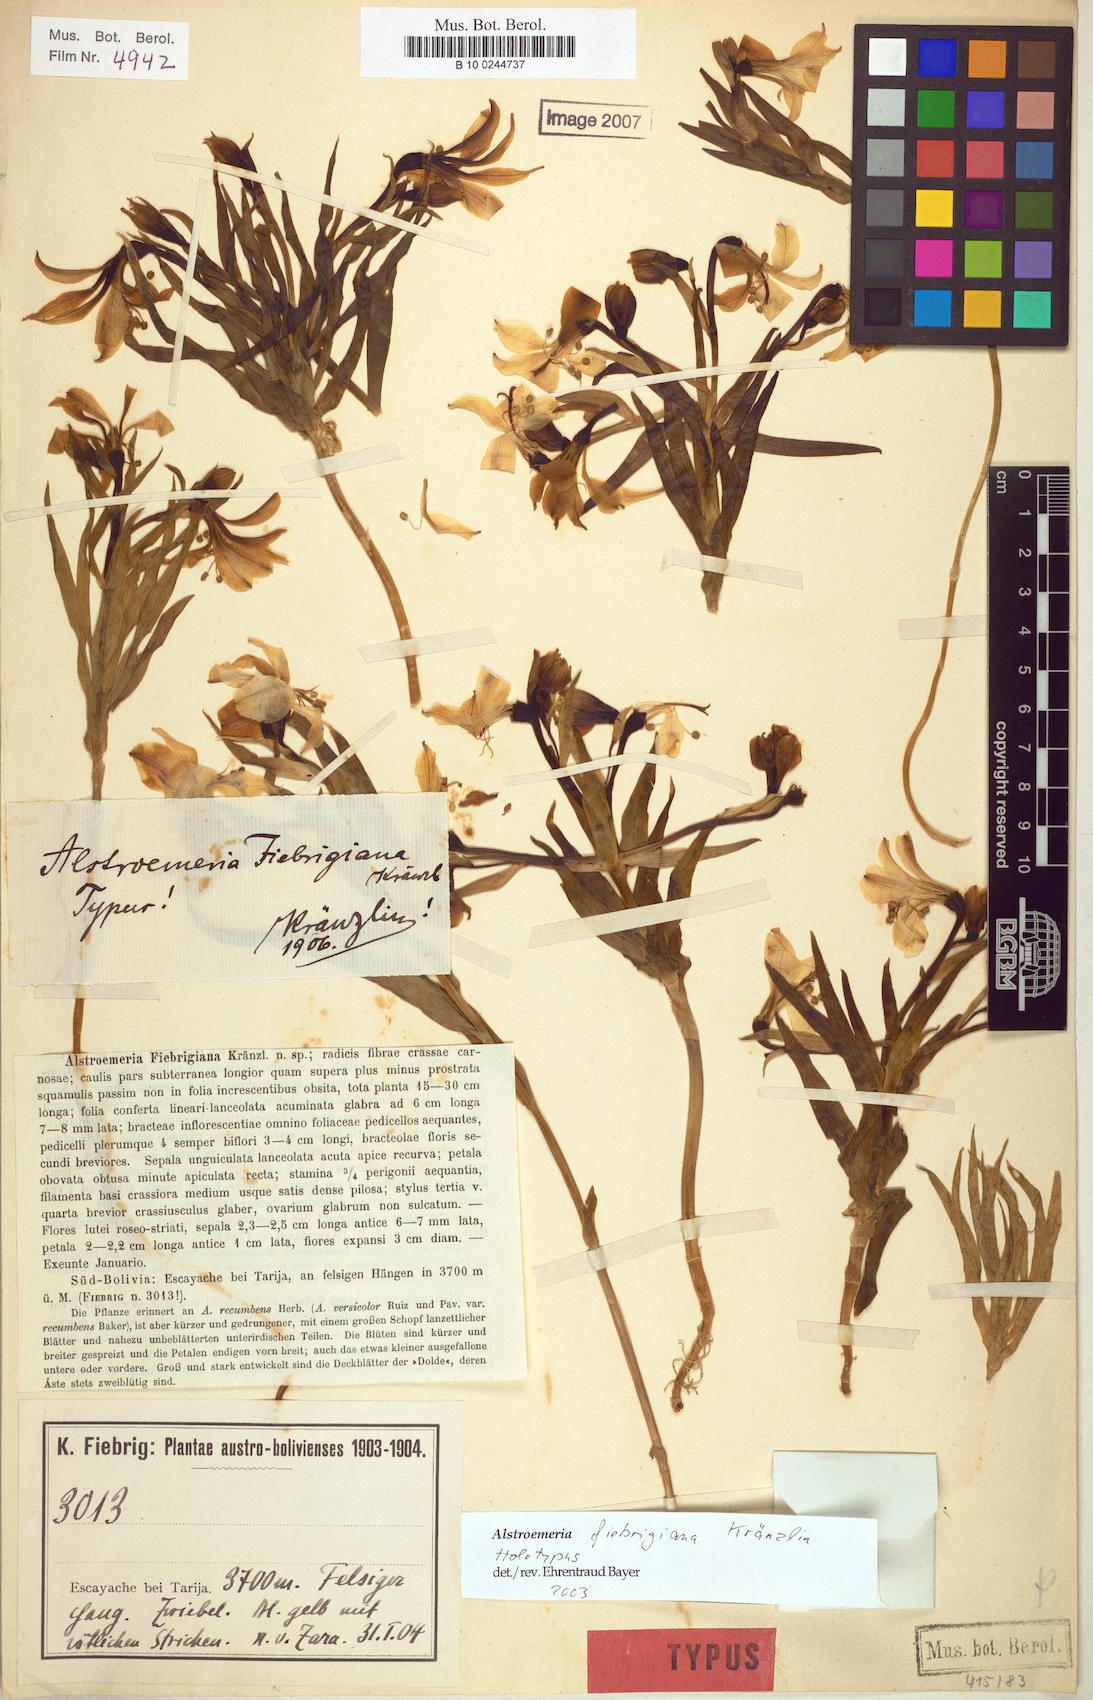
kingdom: Plantae
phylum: Tracheophyta
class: Liliopsida
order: Liliales
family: Alstroemeriaceae
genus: Alstroemeria
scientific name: Alstroemeria fiebrigiana
